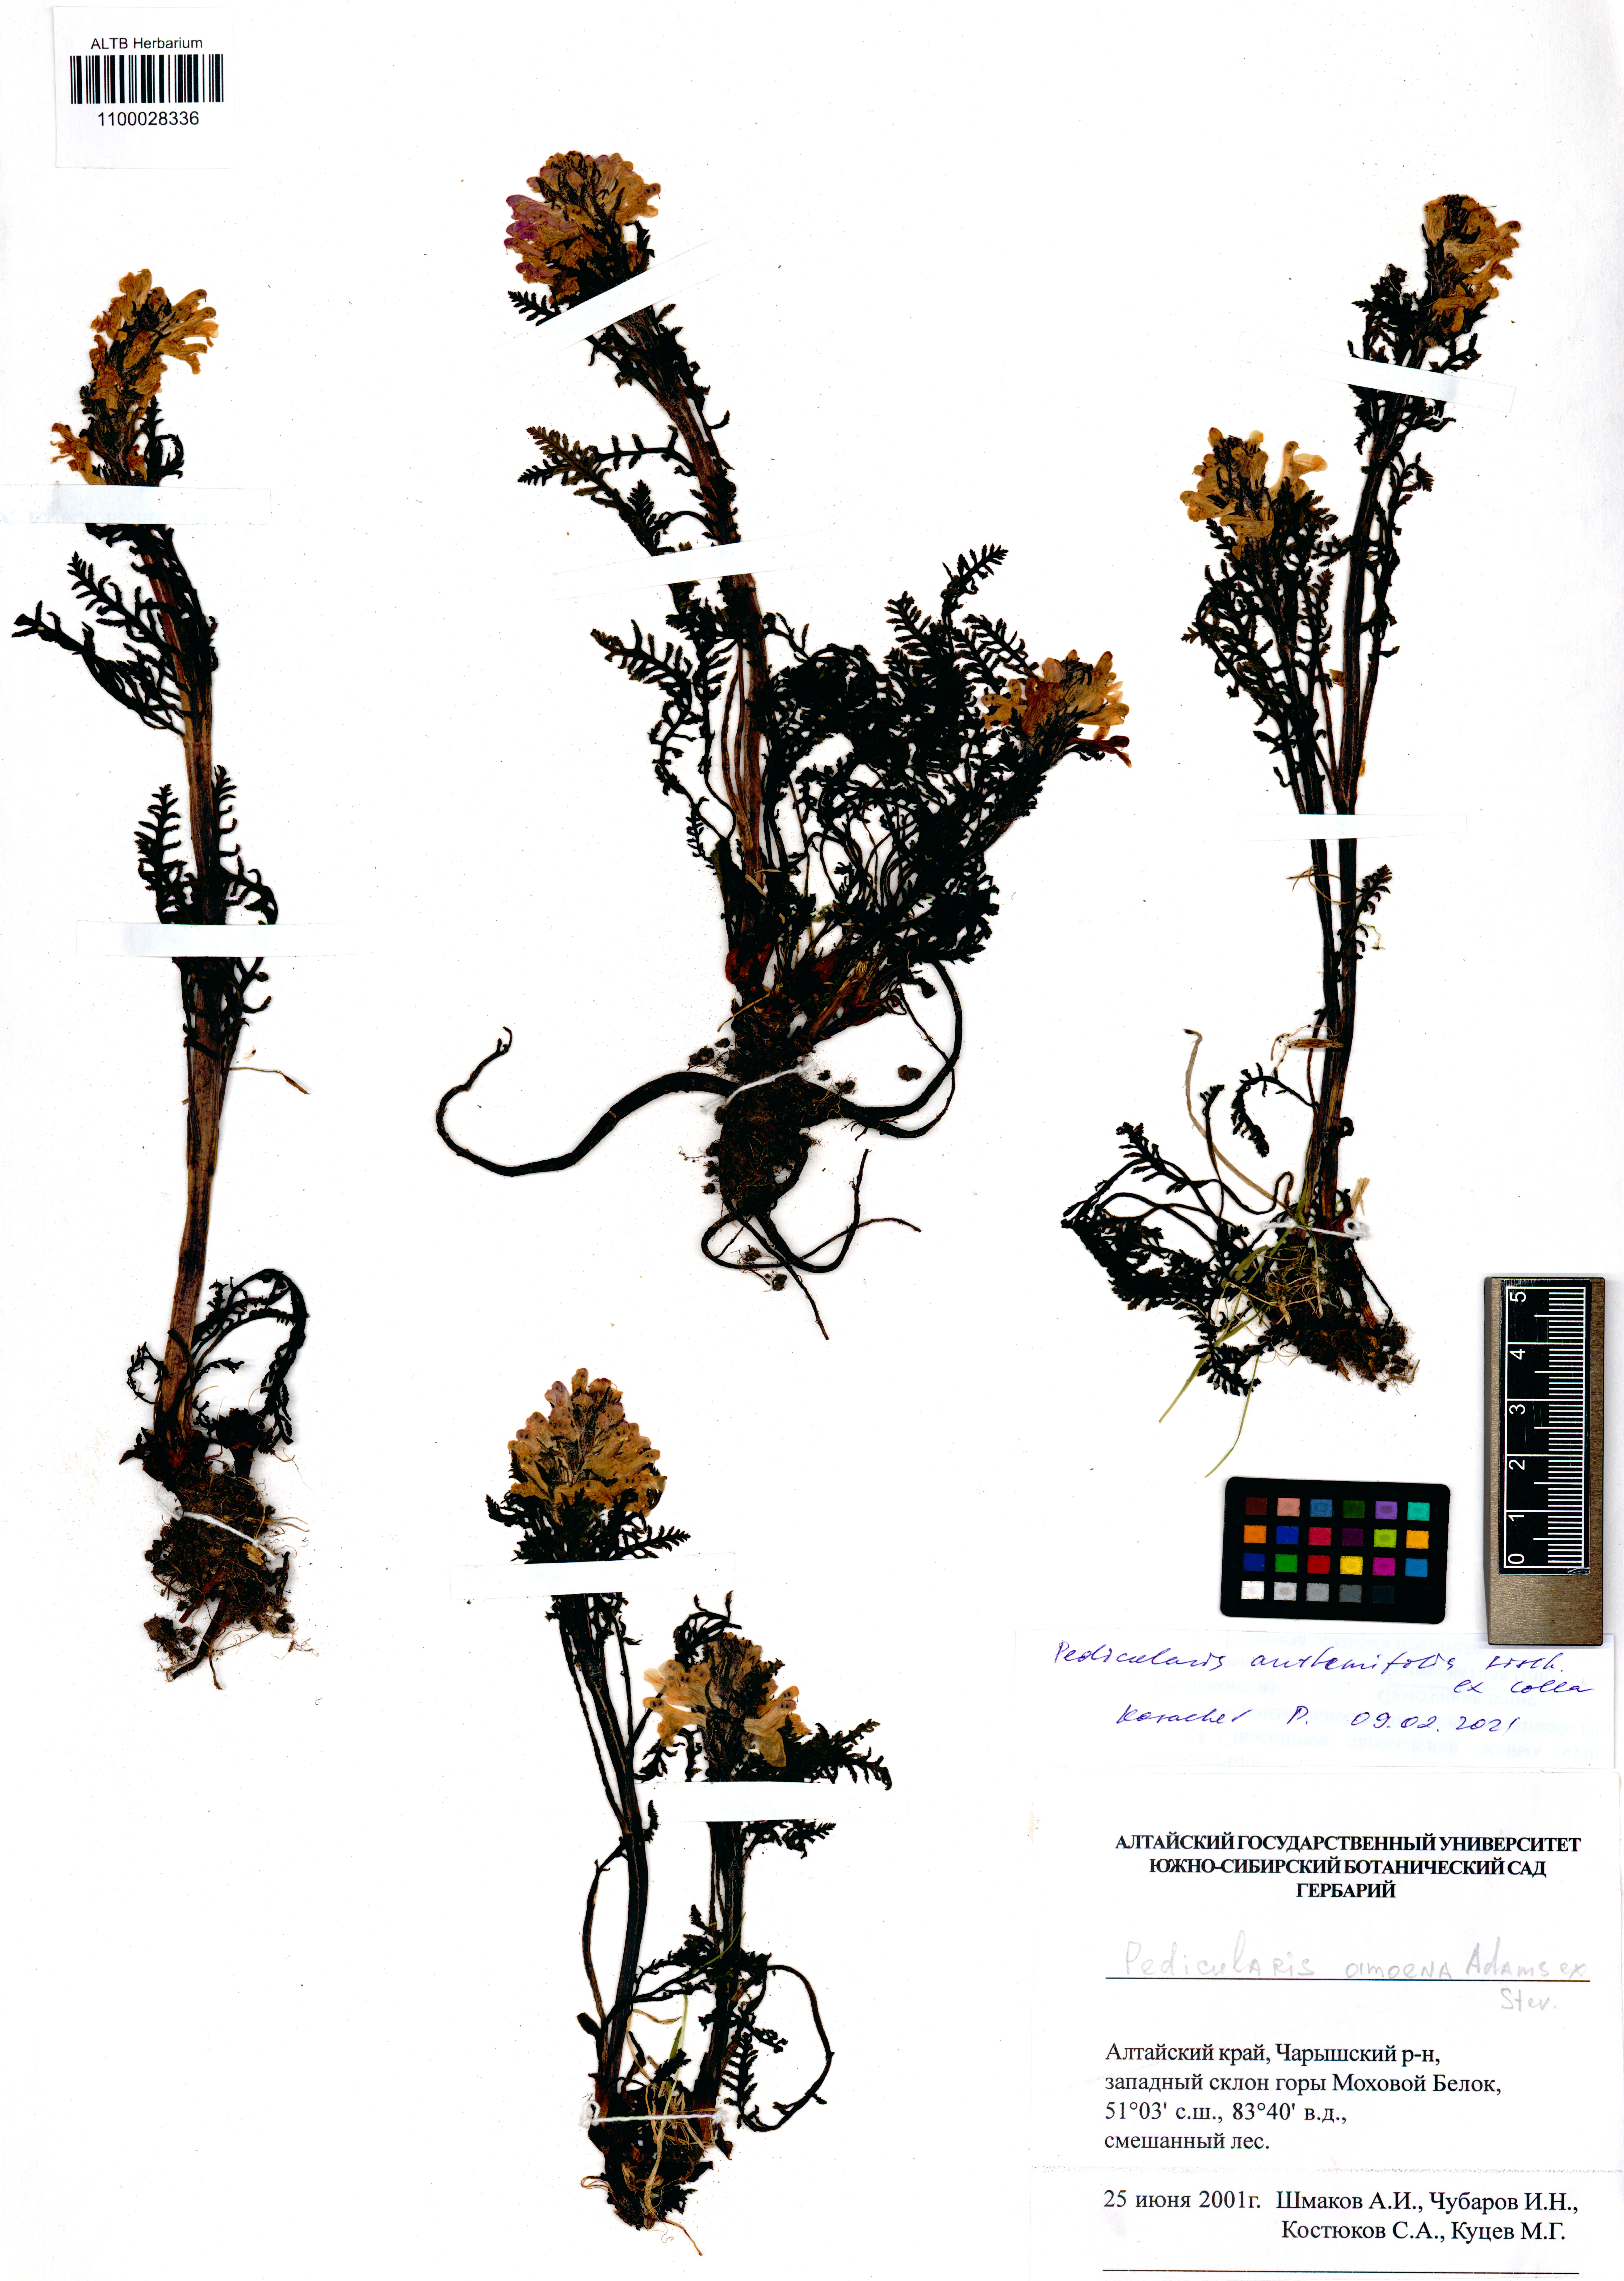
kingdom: Plantae
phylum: Tracheophyta
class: Magnoliopsida
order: Lamiales
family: Orobanchaceae
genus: Pedicularis
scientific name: Pedicularis anthemifolia
